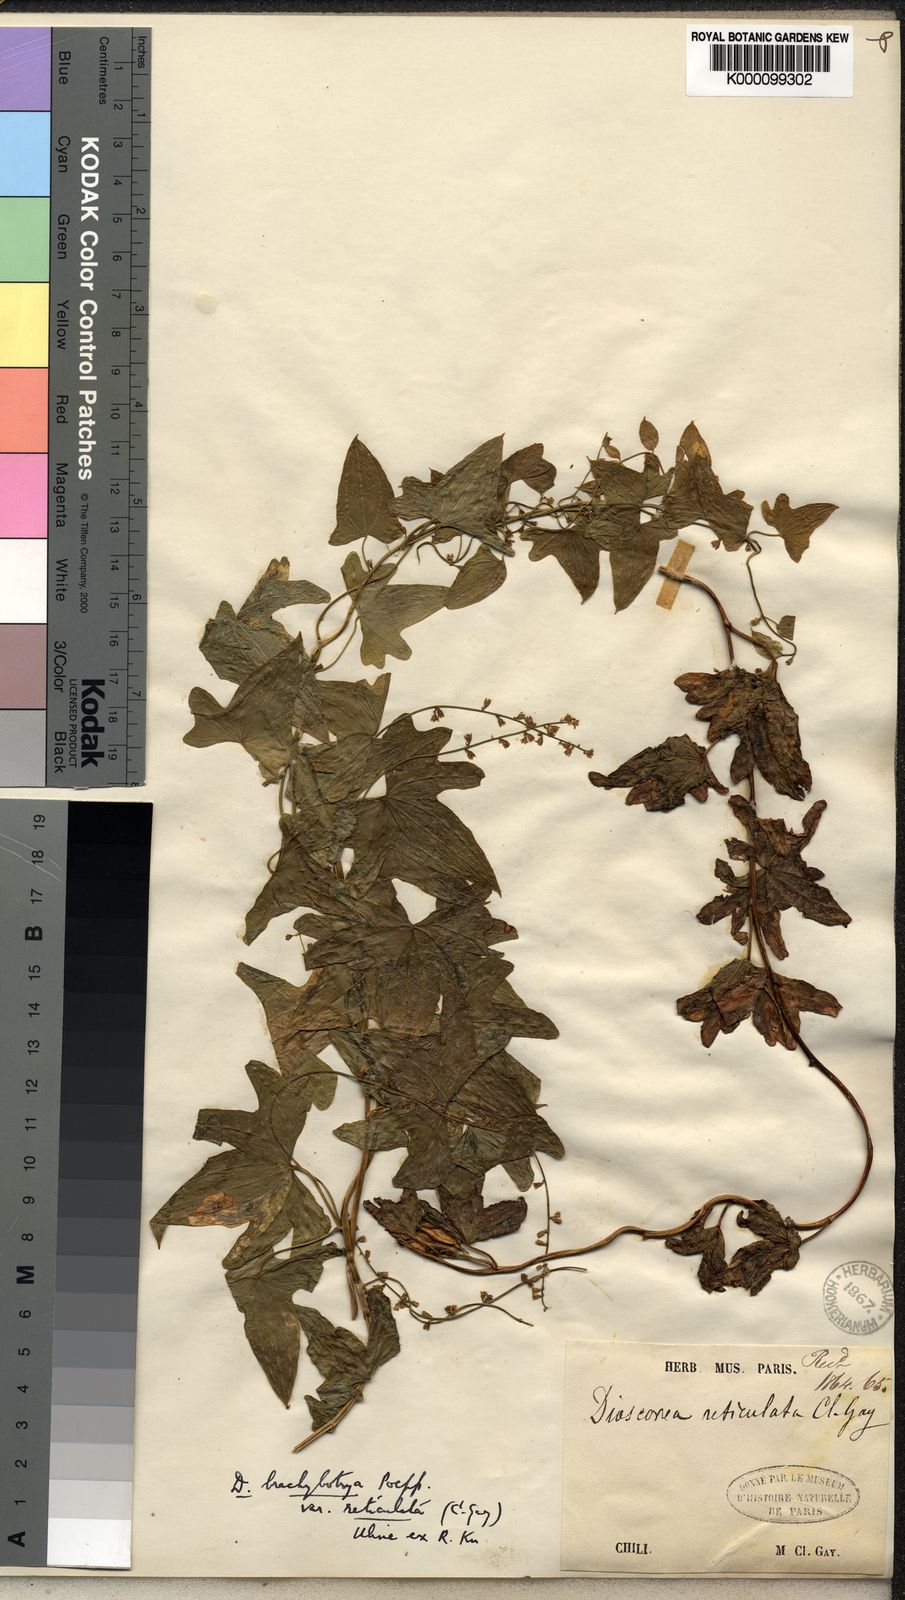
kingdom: Plantae
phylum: Tracheophyta
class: Liliopsida
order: Dioscoreales
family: Dioscoreaceae
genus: Dioscorea
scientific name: Dioscorea brachybotrya
